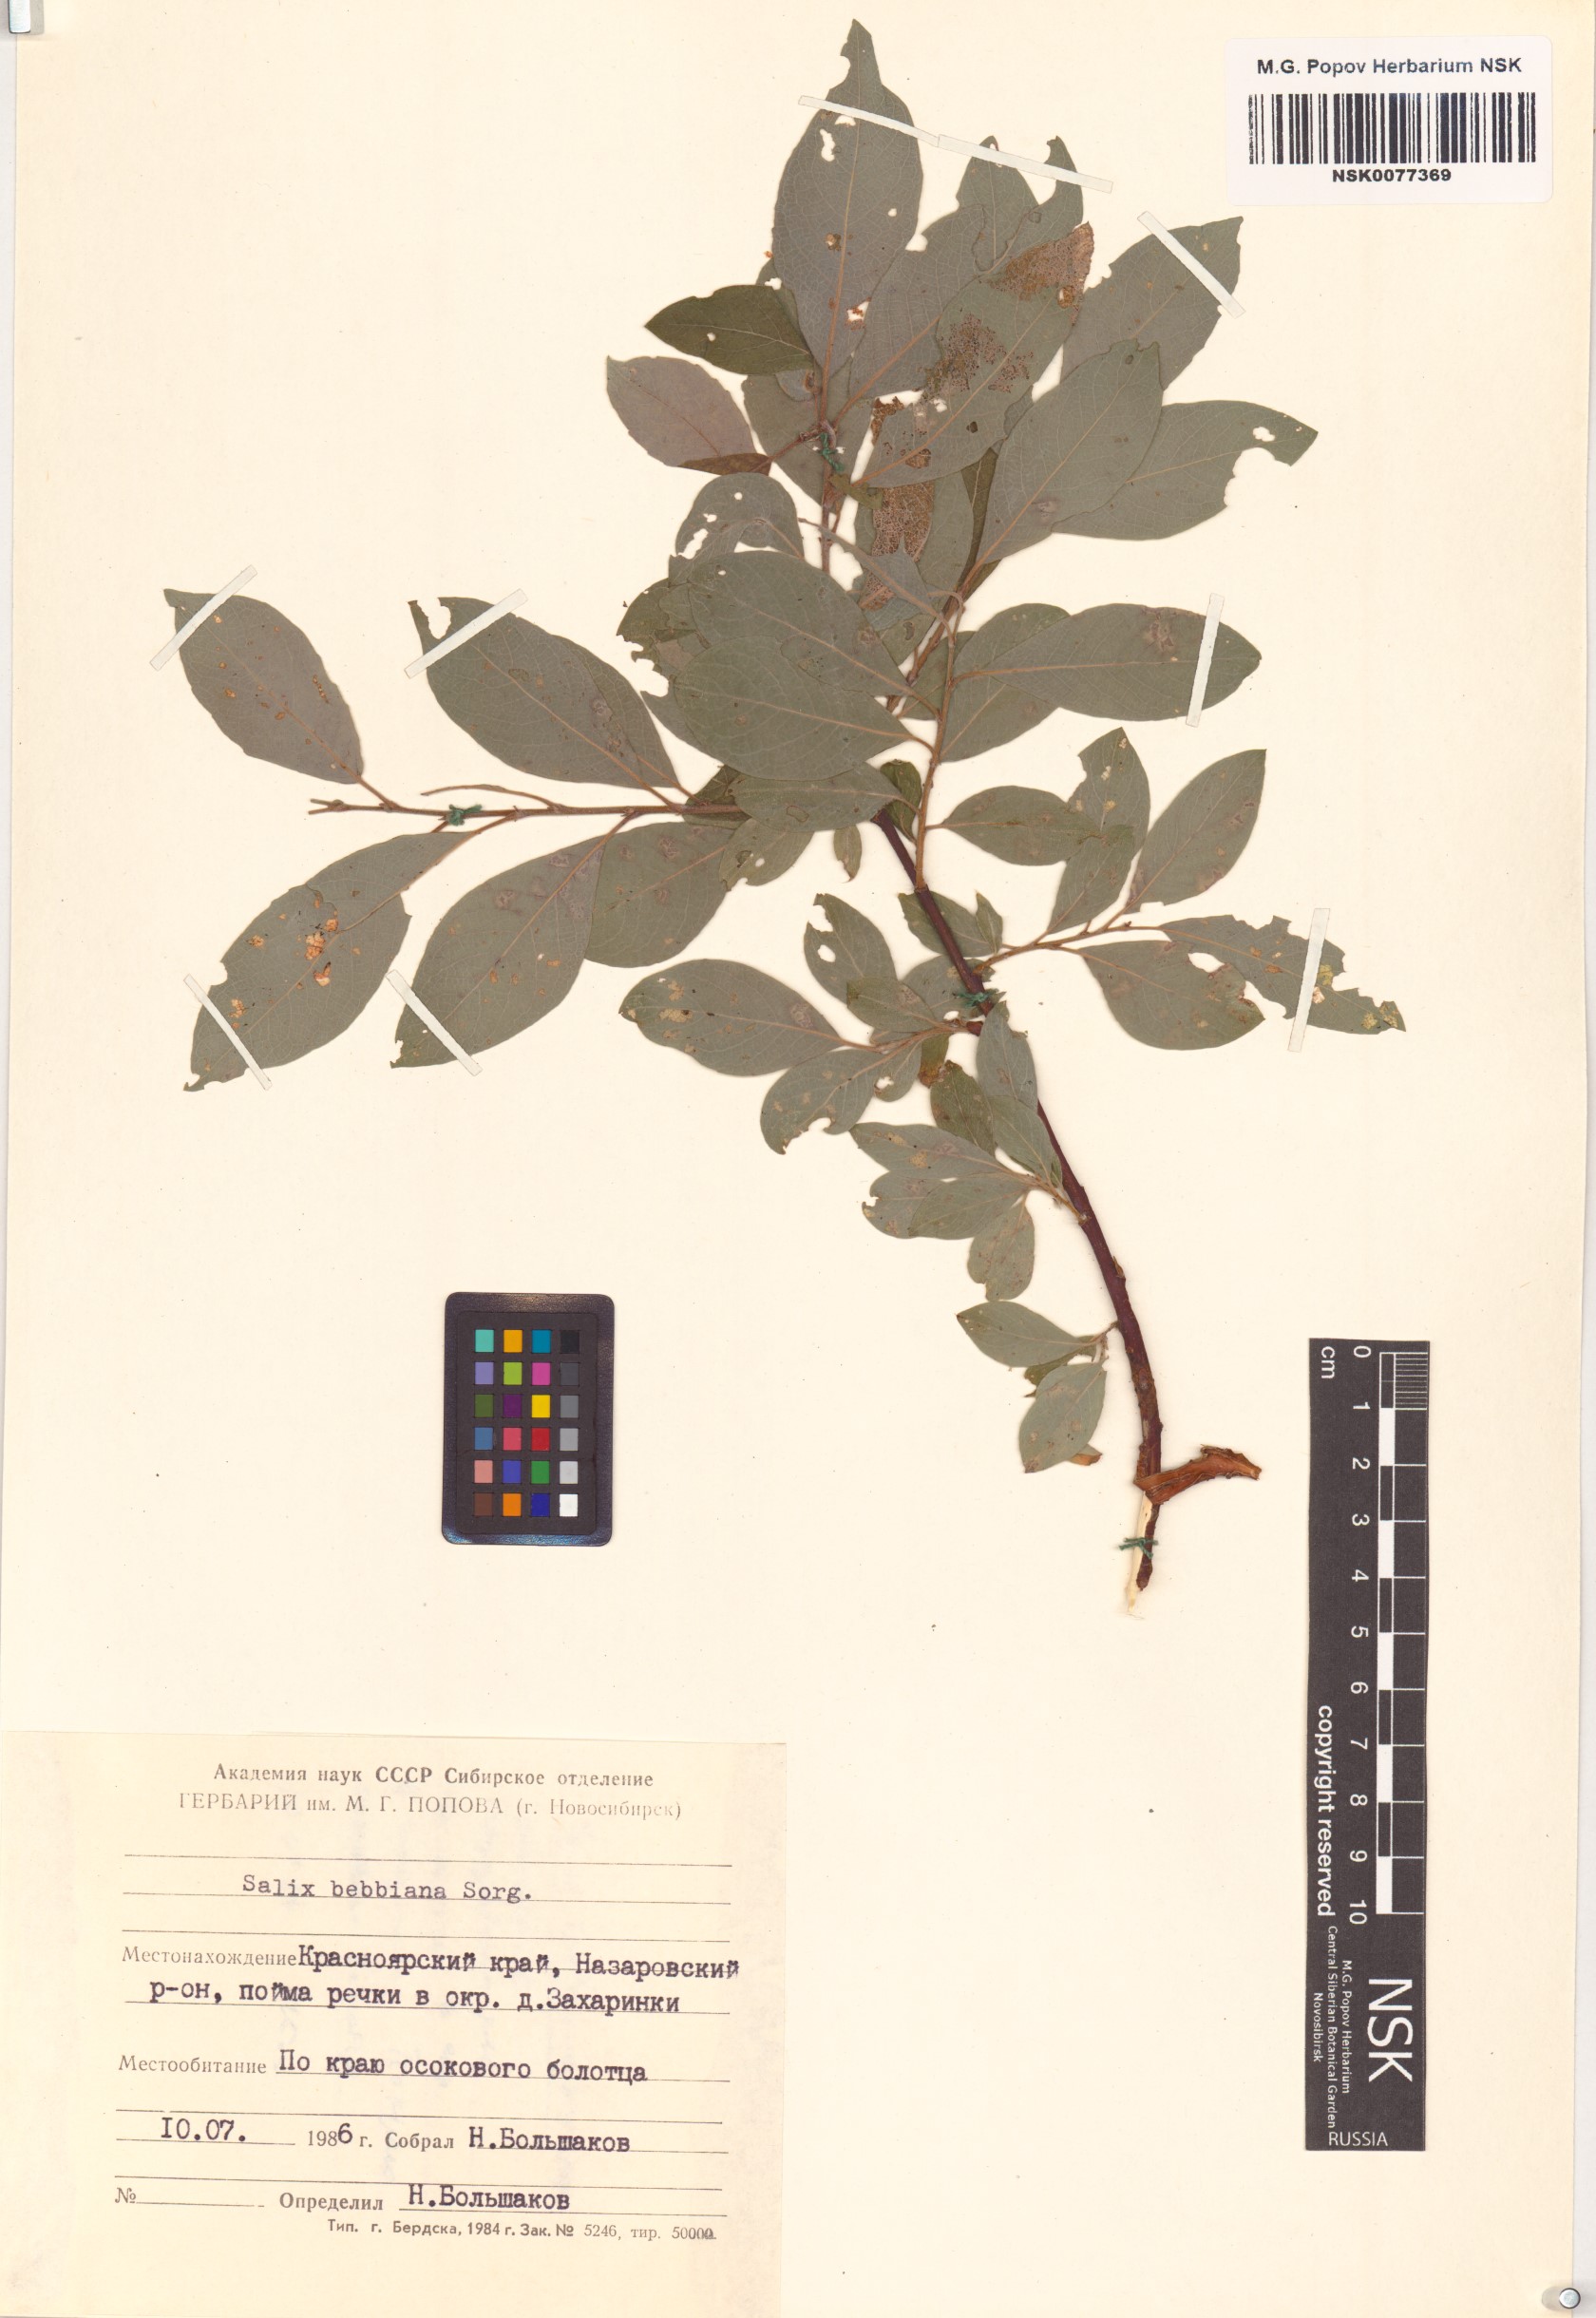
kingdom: Plantae
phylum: Tracheophyta
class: Magnoliopsida
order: Malpighiales
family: Salicaceae
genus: Salix
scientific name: Salix bebbiana
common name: Bebb's willow
